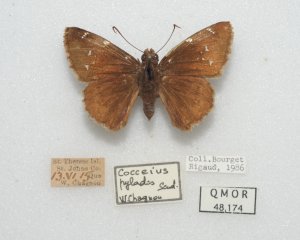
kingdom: Animalia
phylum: Arthropoda
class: Insecta
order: Lepidoptera
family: Hesperiidae
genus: Autochton
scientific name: Autochton
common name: Northern Cloudywing
